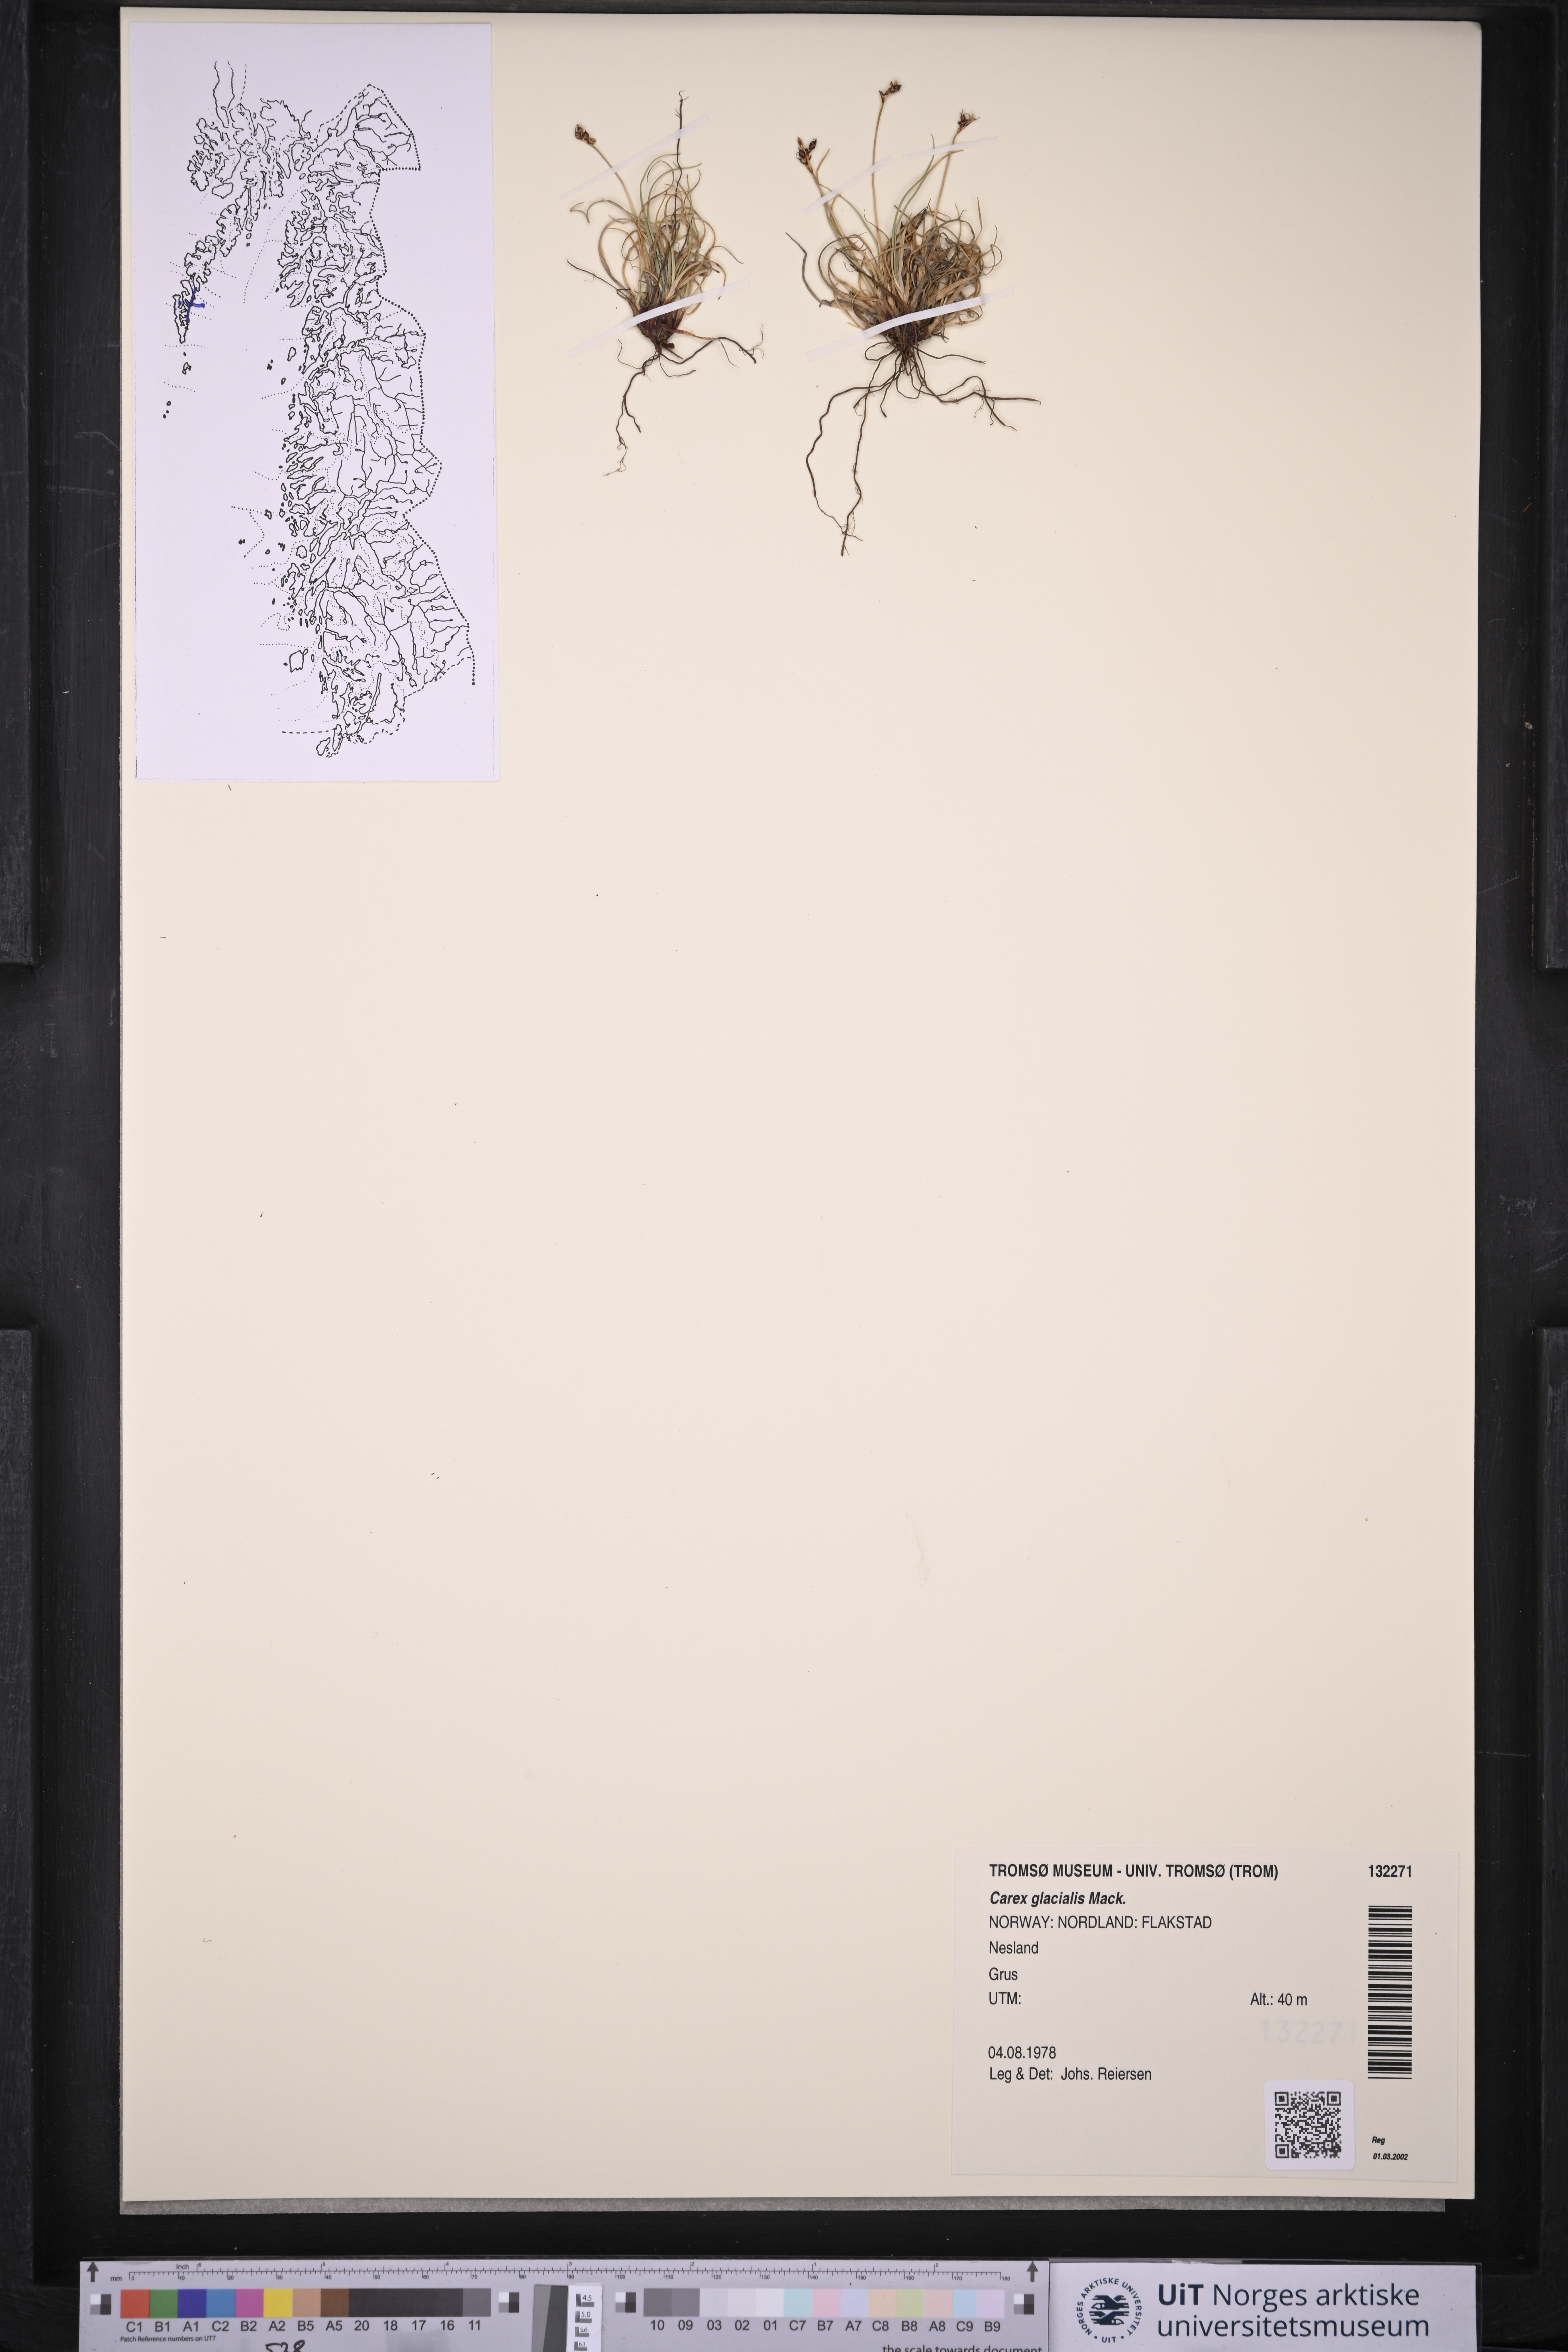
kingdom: Plantae
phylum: Tracheophyta
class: Liliopsida
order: Poales
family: Cyperaceae
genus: Carex
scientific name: Carex glacialis
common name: Newfoundland sedge
